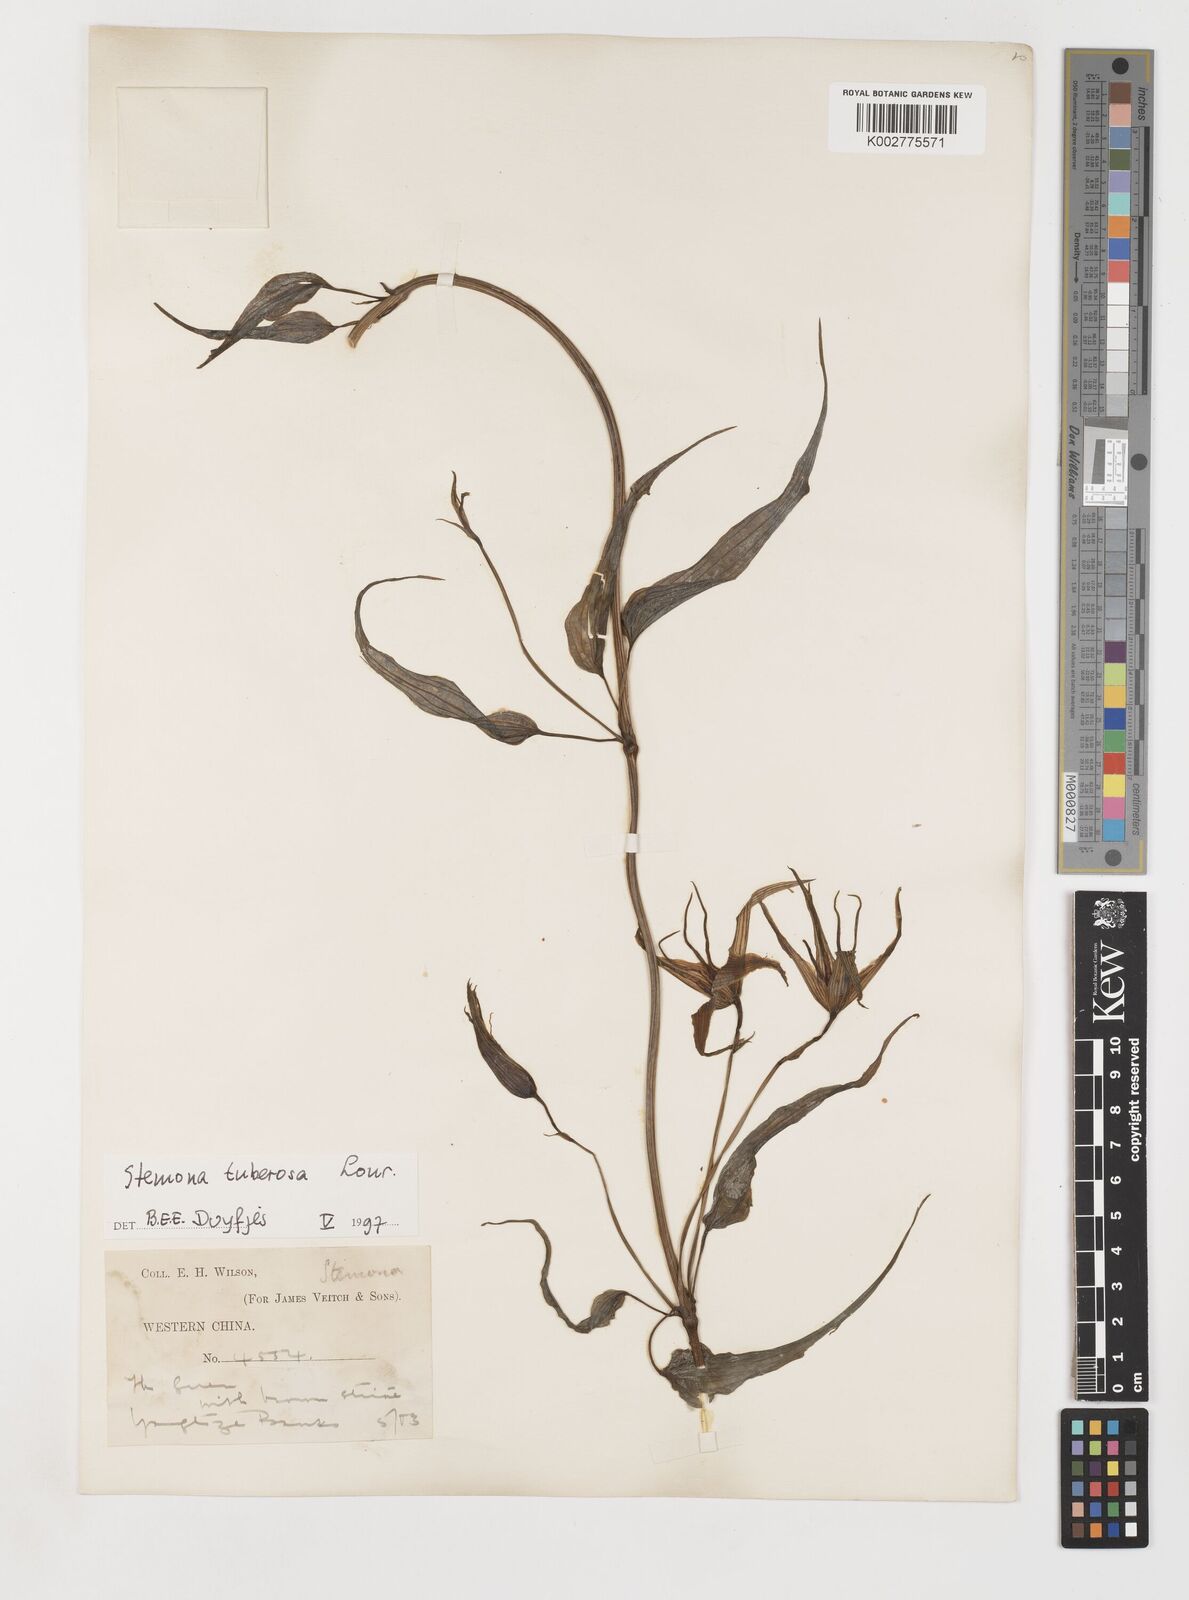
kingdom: Plantae
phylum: Tracheophyta
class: Liliopsida
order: Pandanales
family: Stemonaceae
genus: Stemona
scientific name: Stemona tuberosa
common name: Stemona
